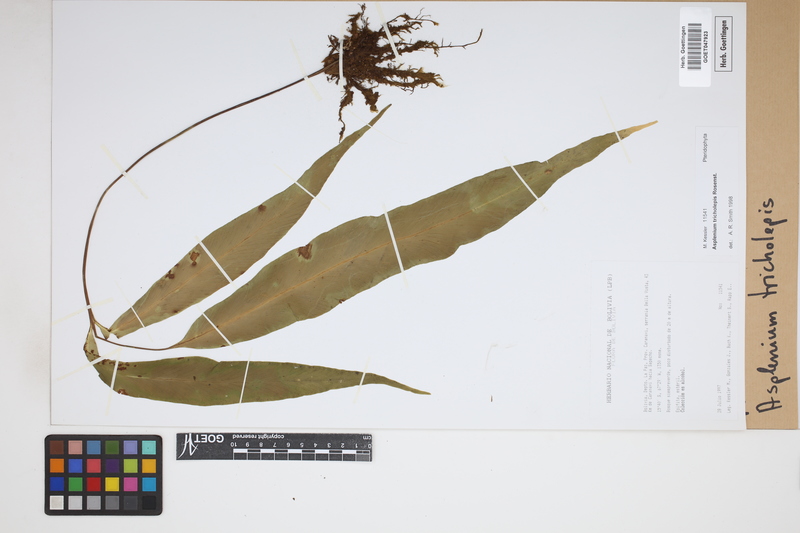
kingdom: Plantae
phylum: Tracheophyta
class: Polypodiopsida
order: Polypodiales
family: Aspleniaceae
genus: Asplenium
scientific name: Asplenium tricholepis
